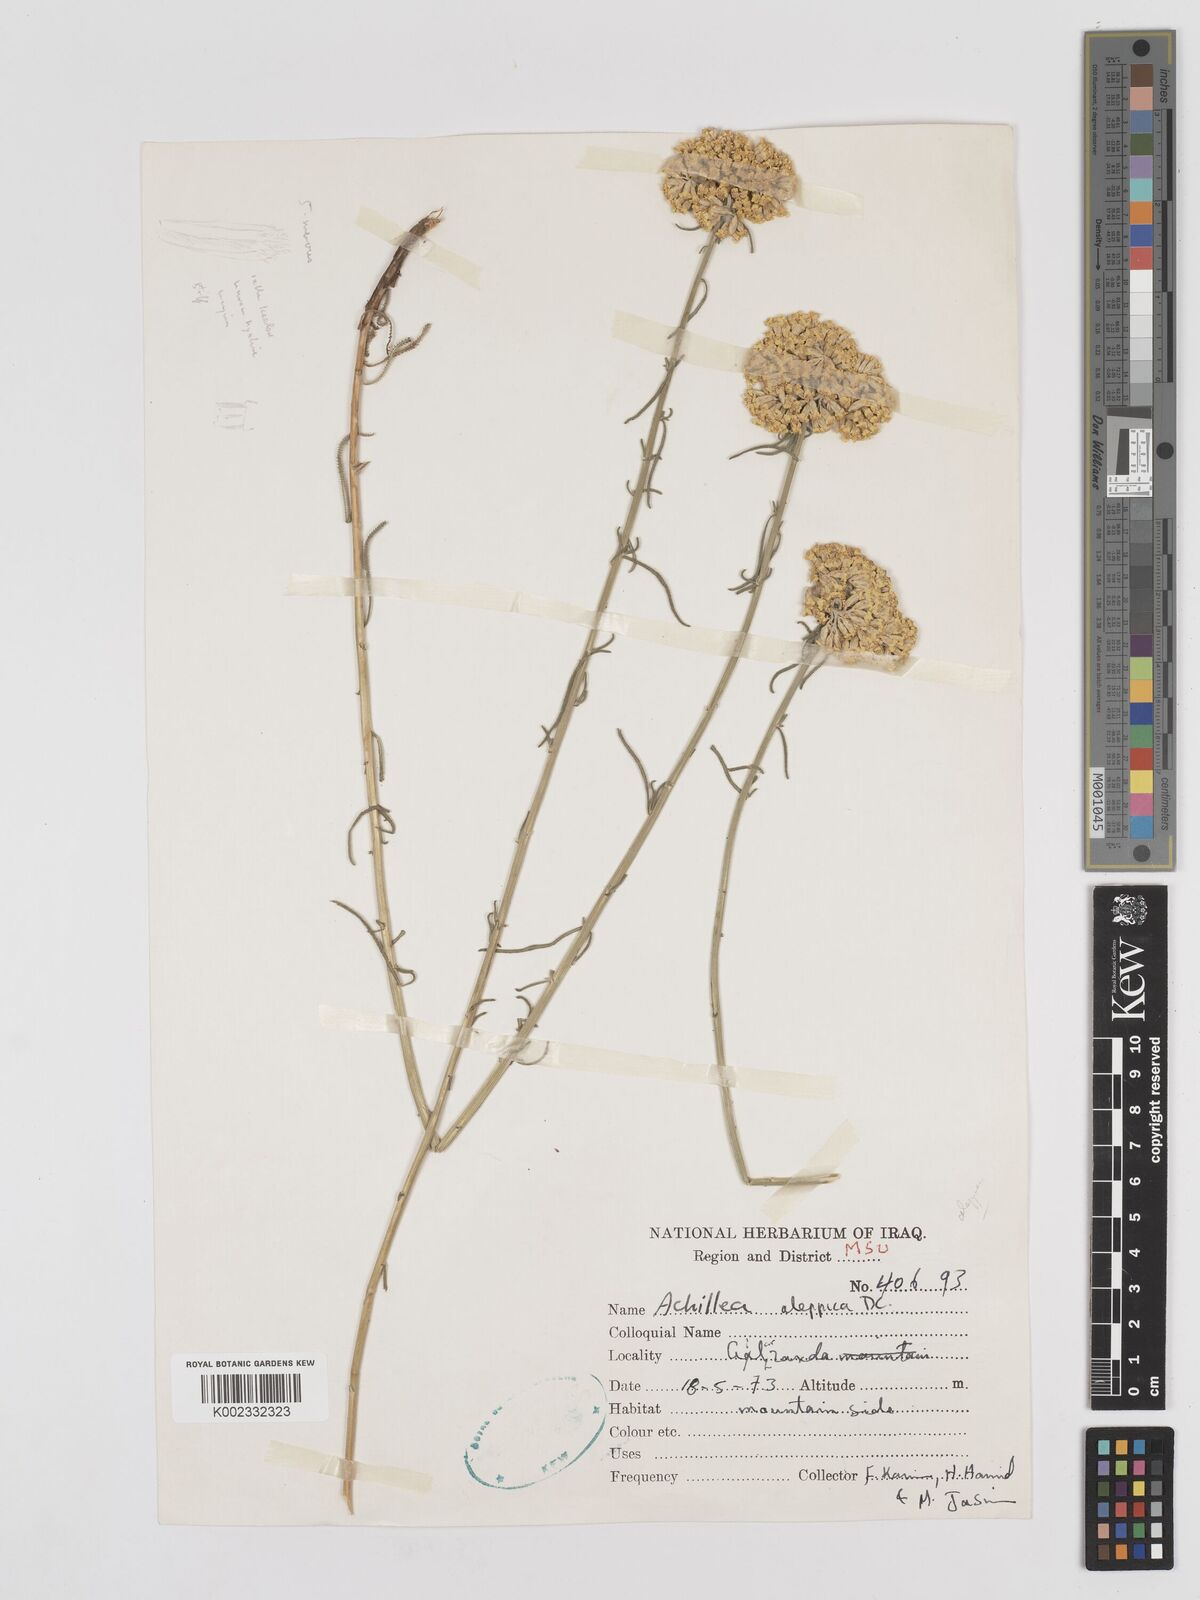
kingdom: Plantae
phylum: Tracheophyta
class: Magnoliopsida
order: Asterales
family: Asteraceae
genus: Achillea
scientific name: Achillea aleppica
